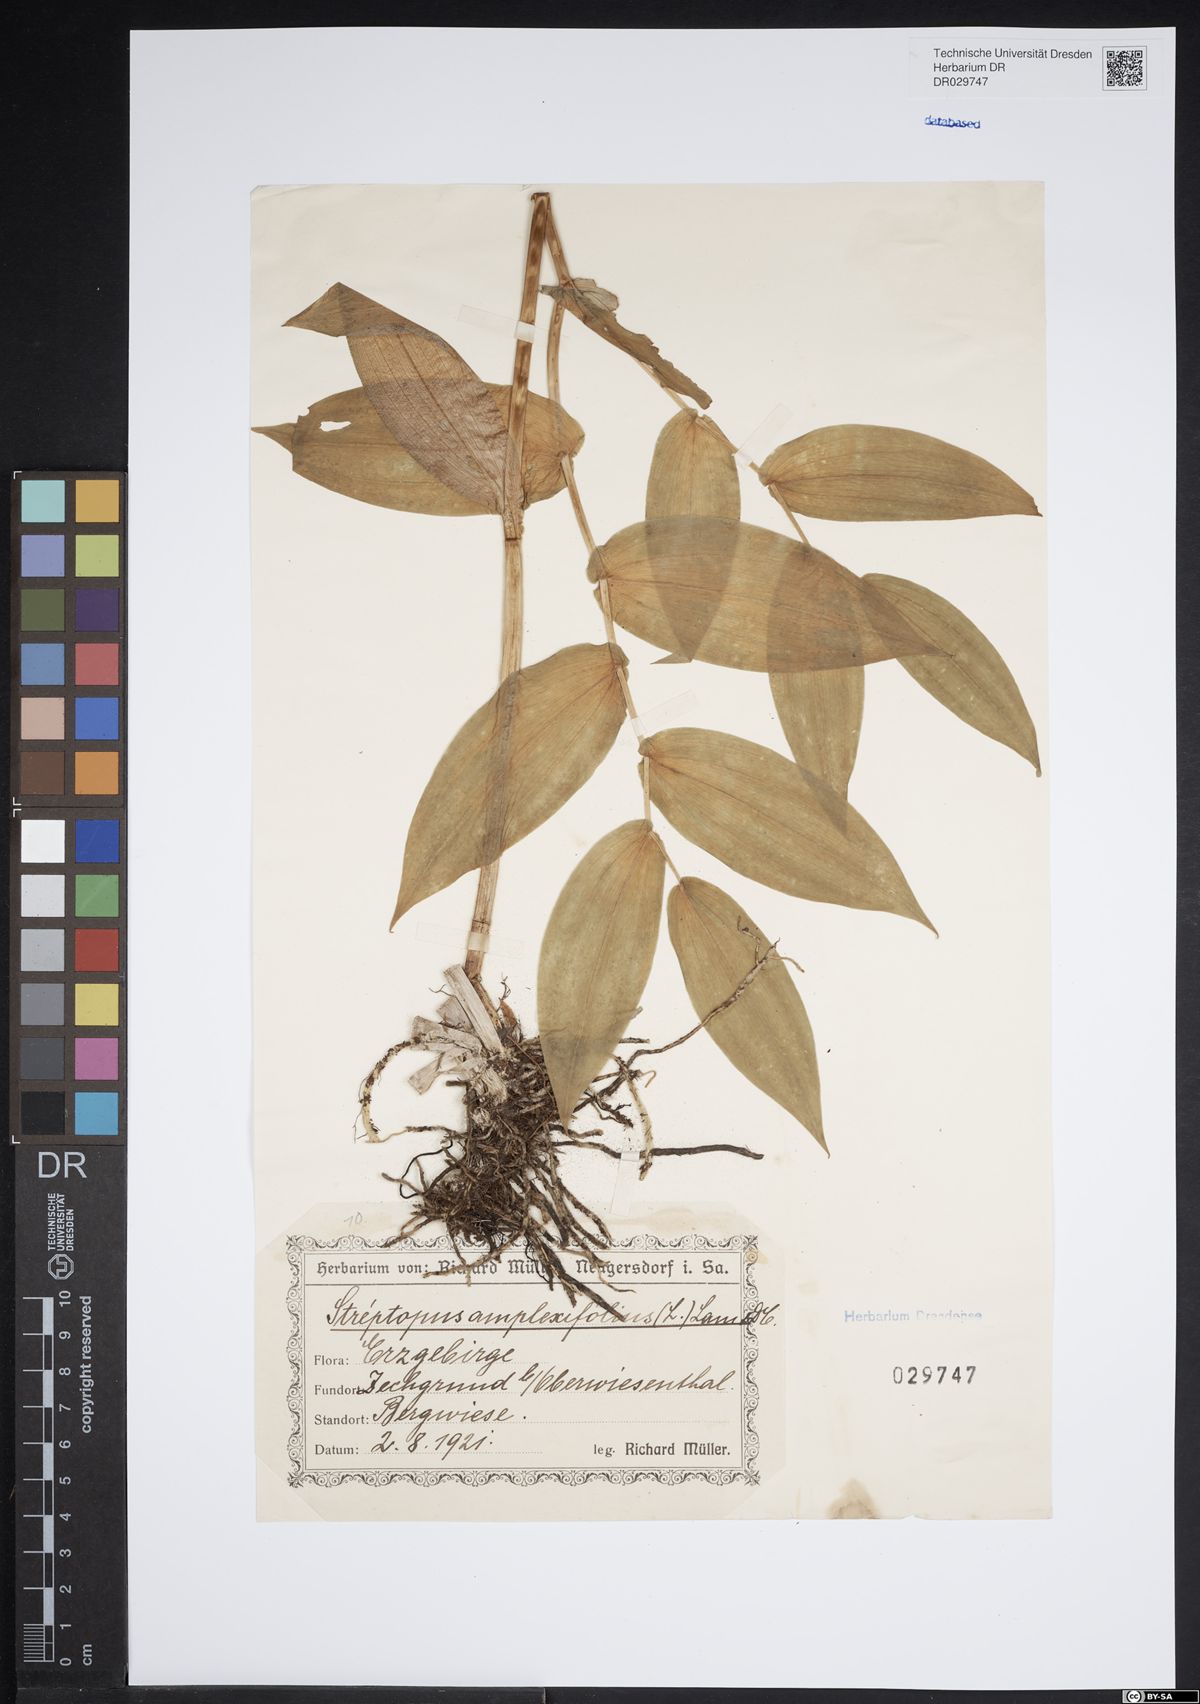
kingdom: Plantae
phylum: Tracheophyta
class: Liliopsida
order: Liliales
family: Liliaceae
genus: Streptopus
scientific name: Streptopus amplexifolius
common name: Clasp twisted stalk
